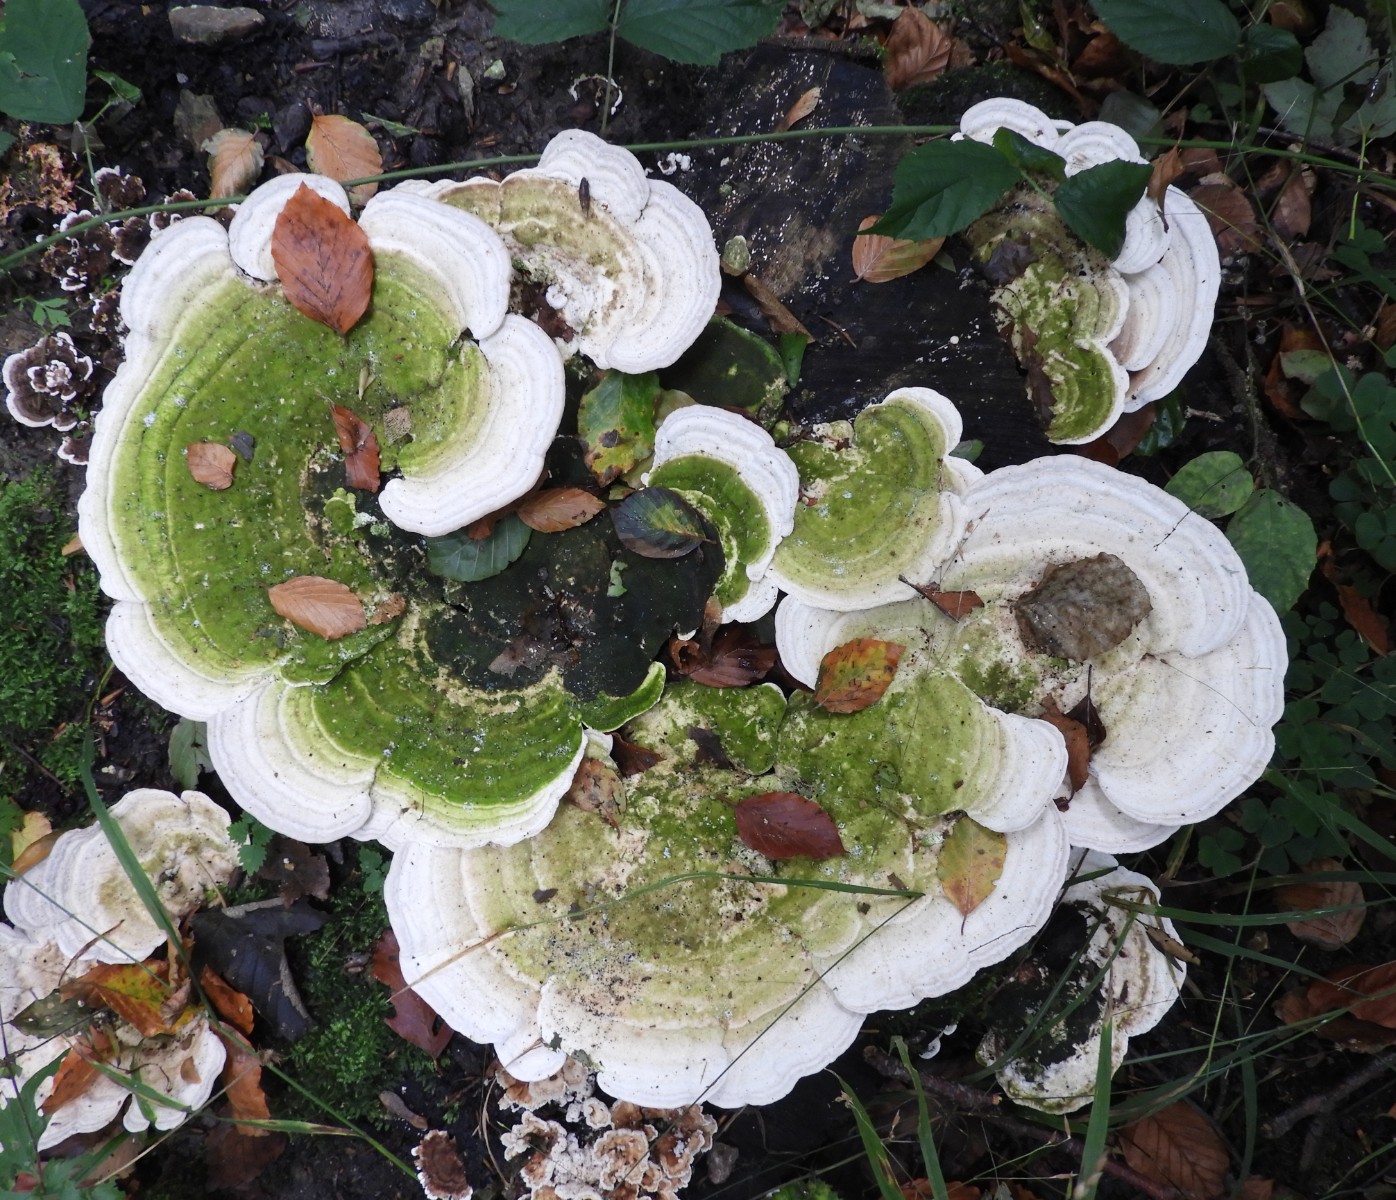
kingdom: Fungi
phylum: Basidiomycota
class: Agaricomycetes
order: Polyporales
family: Polyporaceae
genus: Trametes
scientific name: Trametes gibbosa
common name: puklet læderporesvamp
